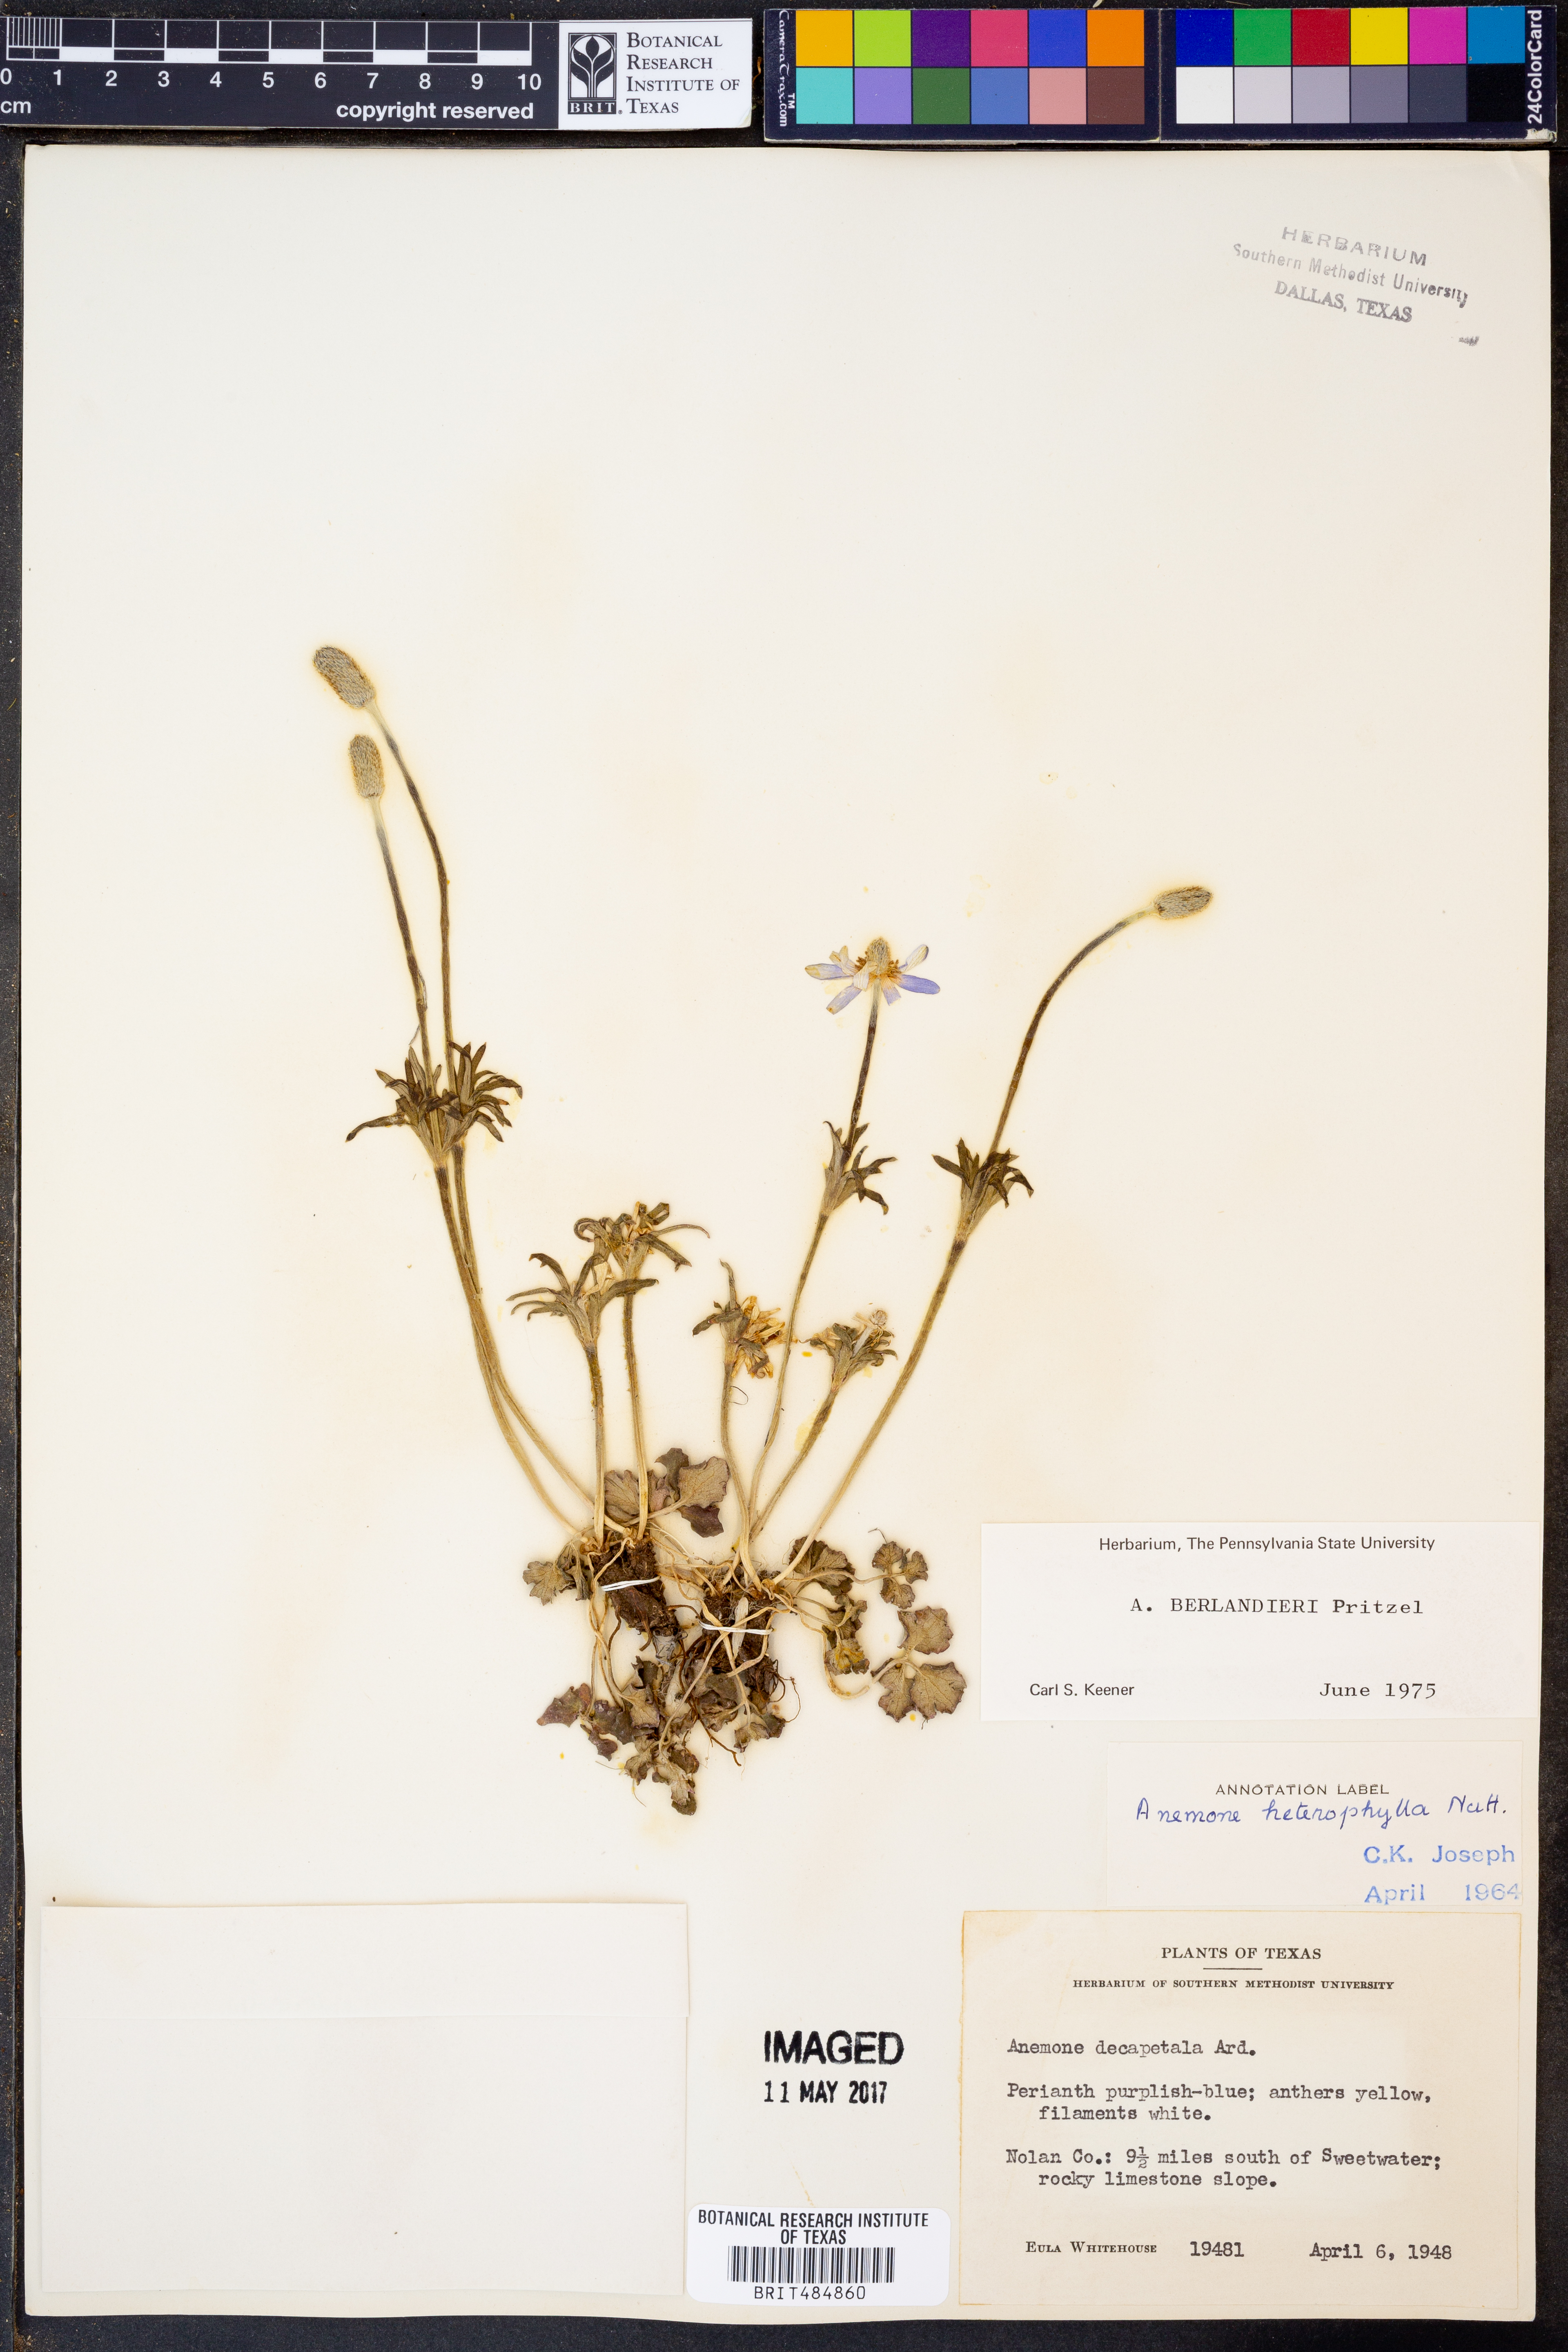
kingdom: Plantae
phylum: Tracheophyta
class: Magnoliopsida
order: Ranunculales
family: Ranunculaceae
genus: Anemone
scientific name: Anemone decapetala
